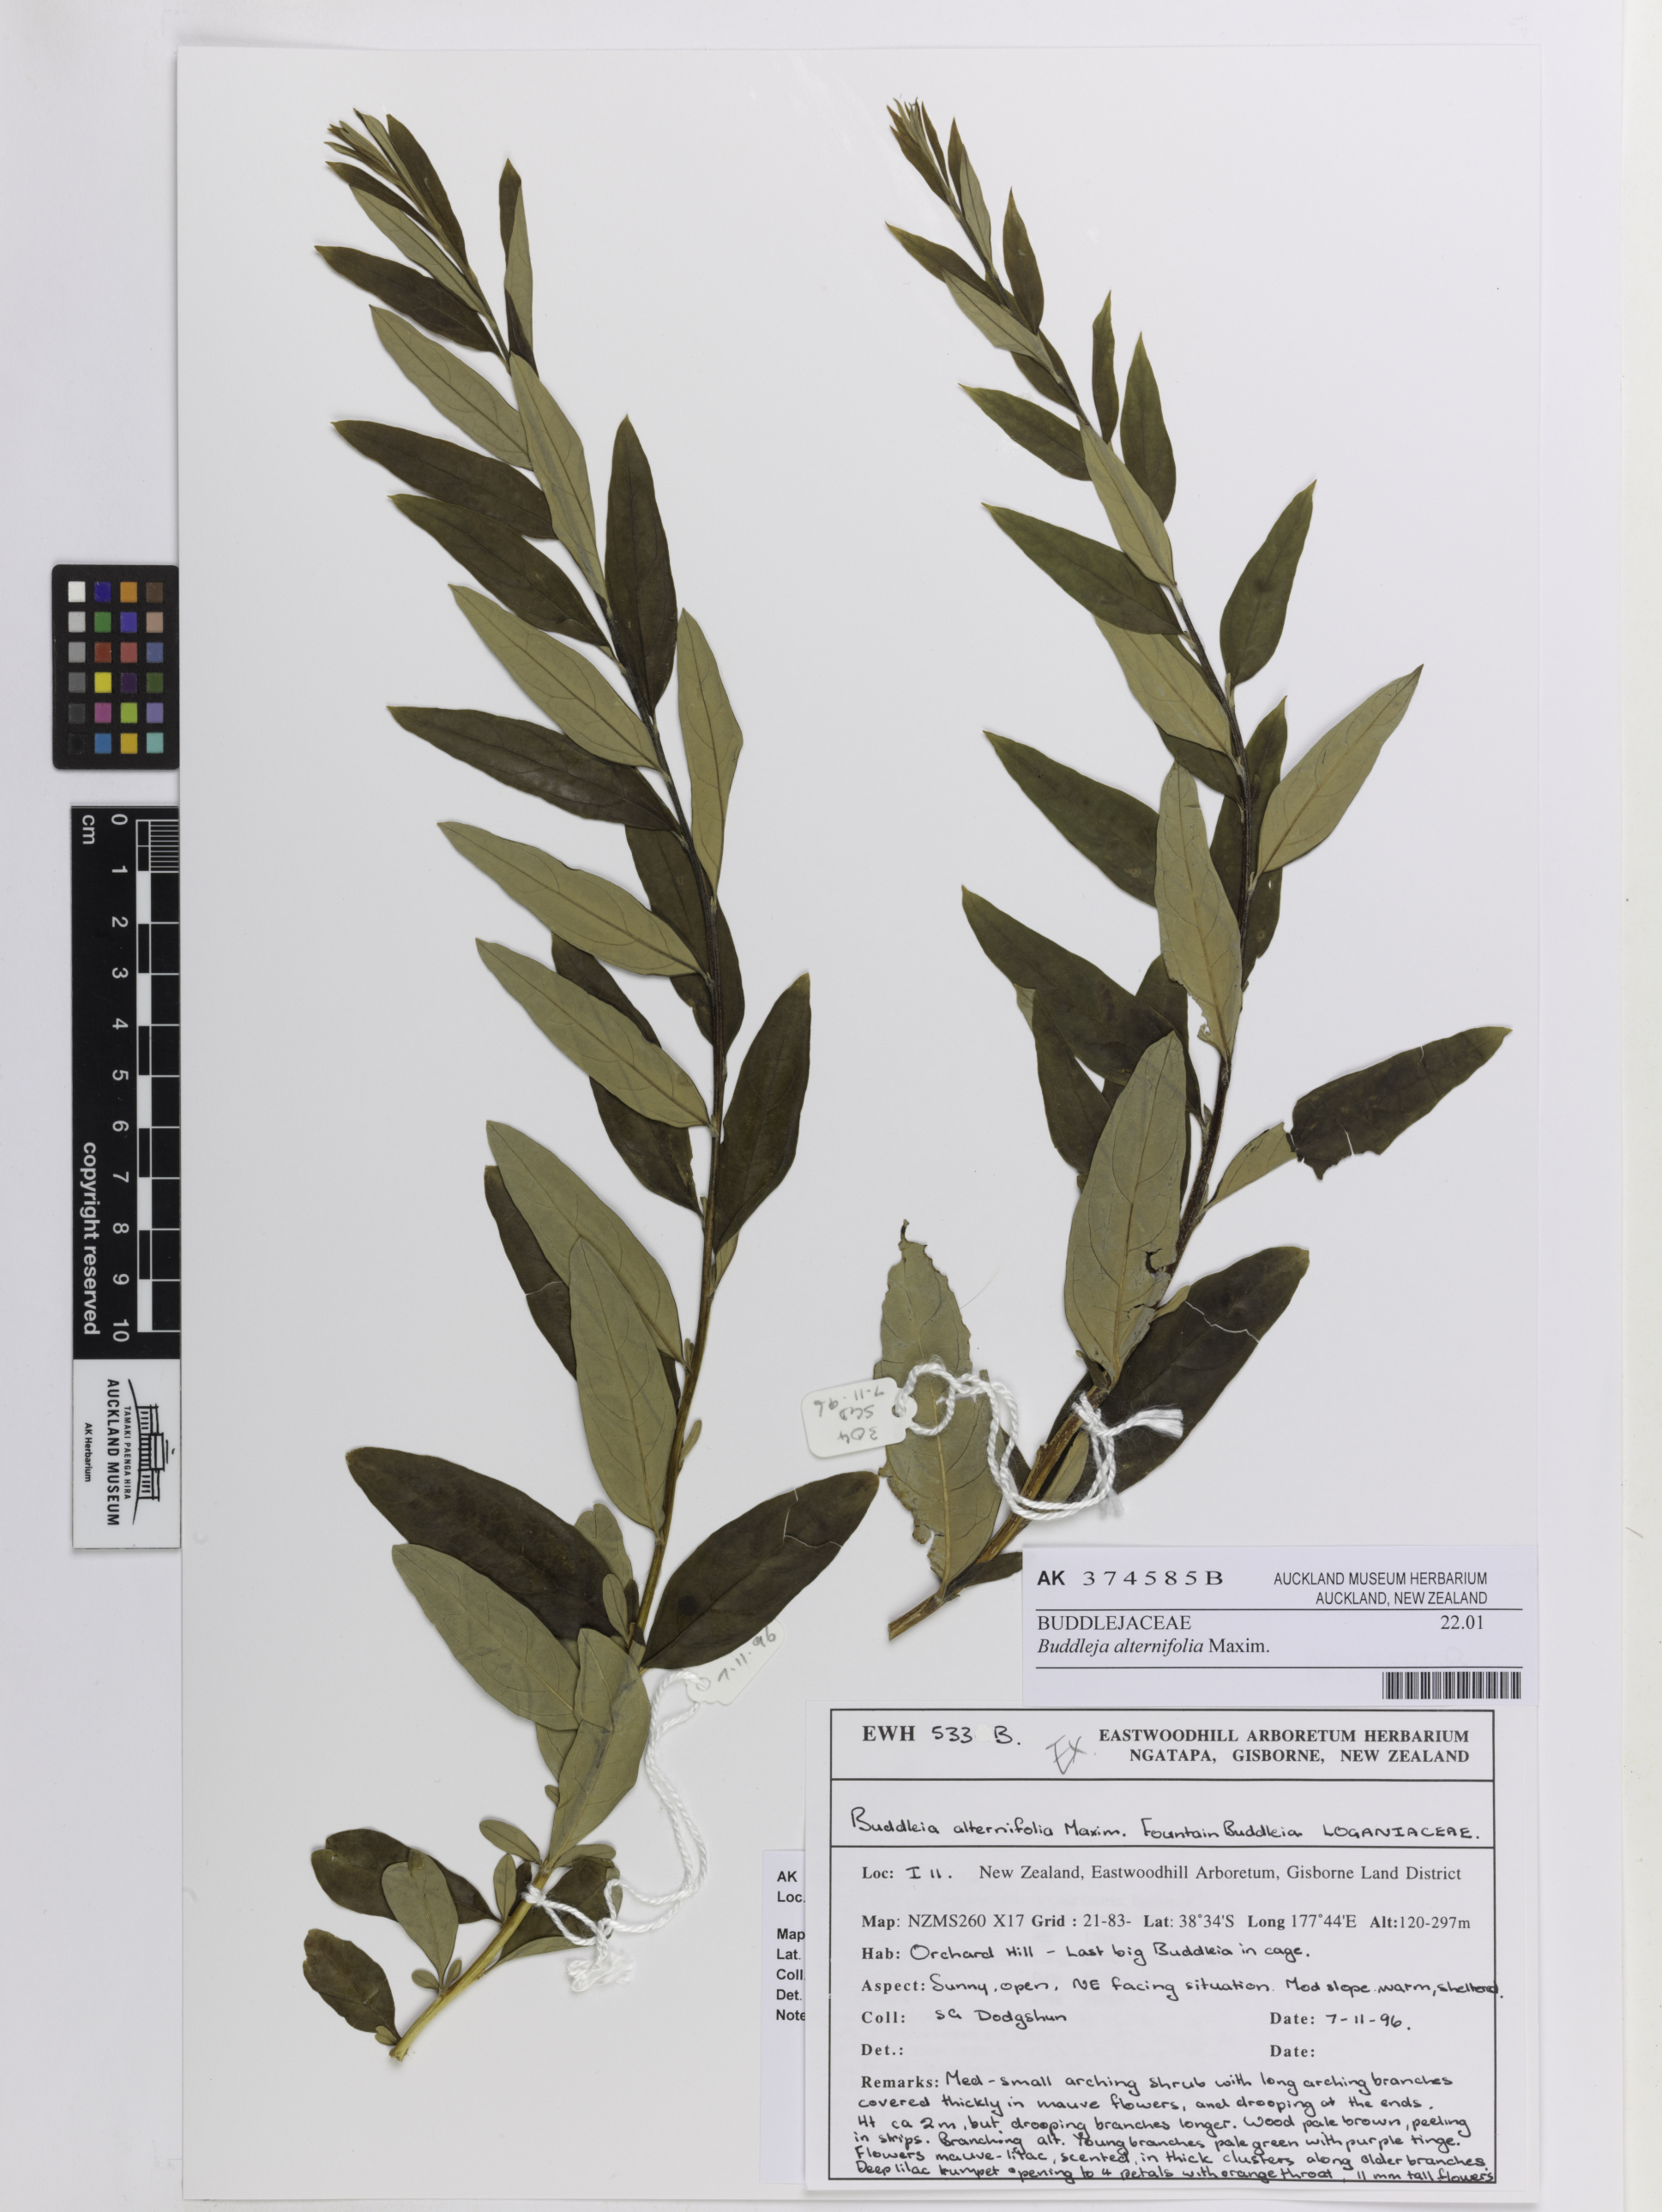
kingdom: Plantae
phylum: Tracheophyta
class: Magnoliopsida
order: Lamiales
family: Scrophulariaceae
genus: Buddleja
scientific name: Buddleja alternifolia
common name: Alternate-leaved butterfly-bush
